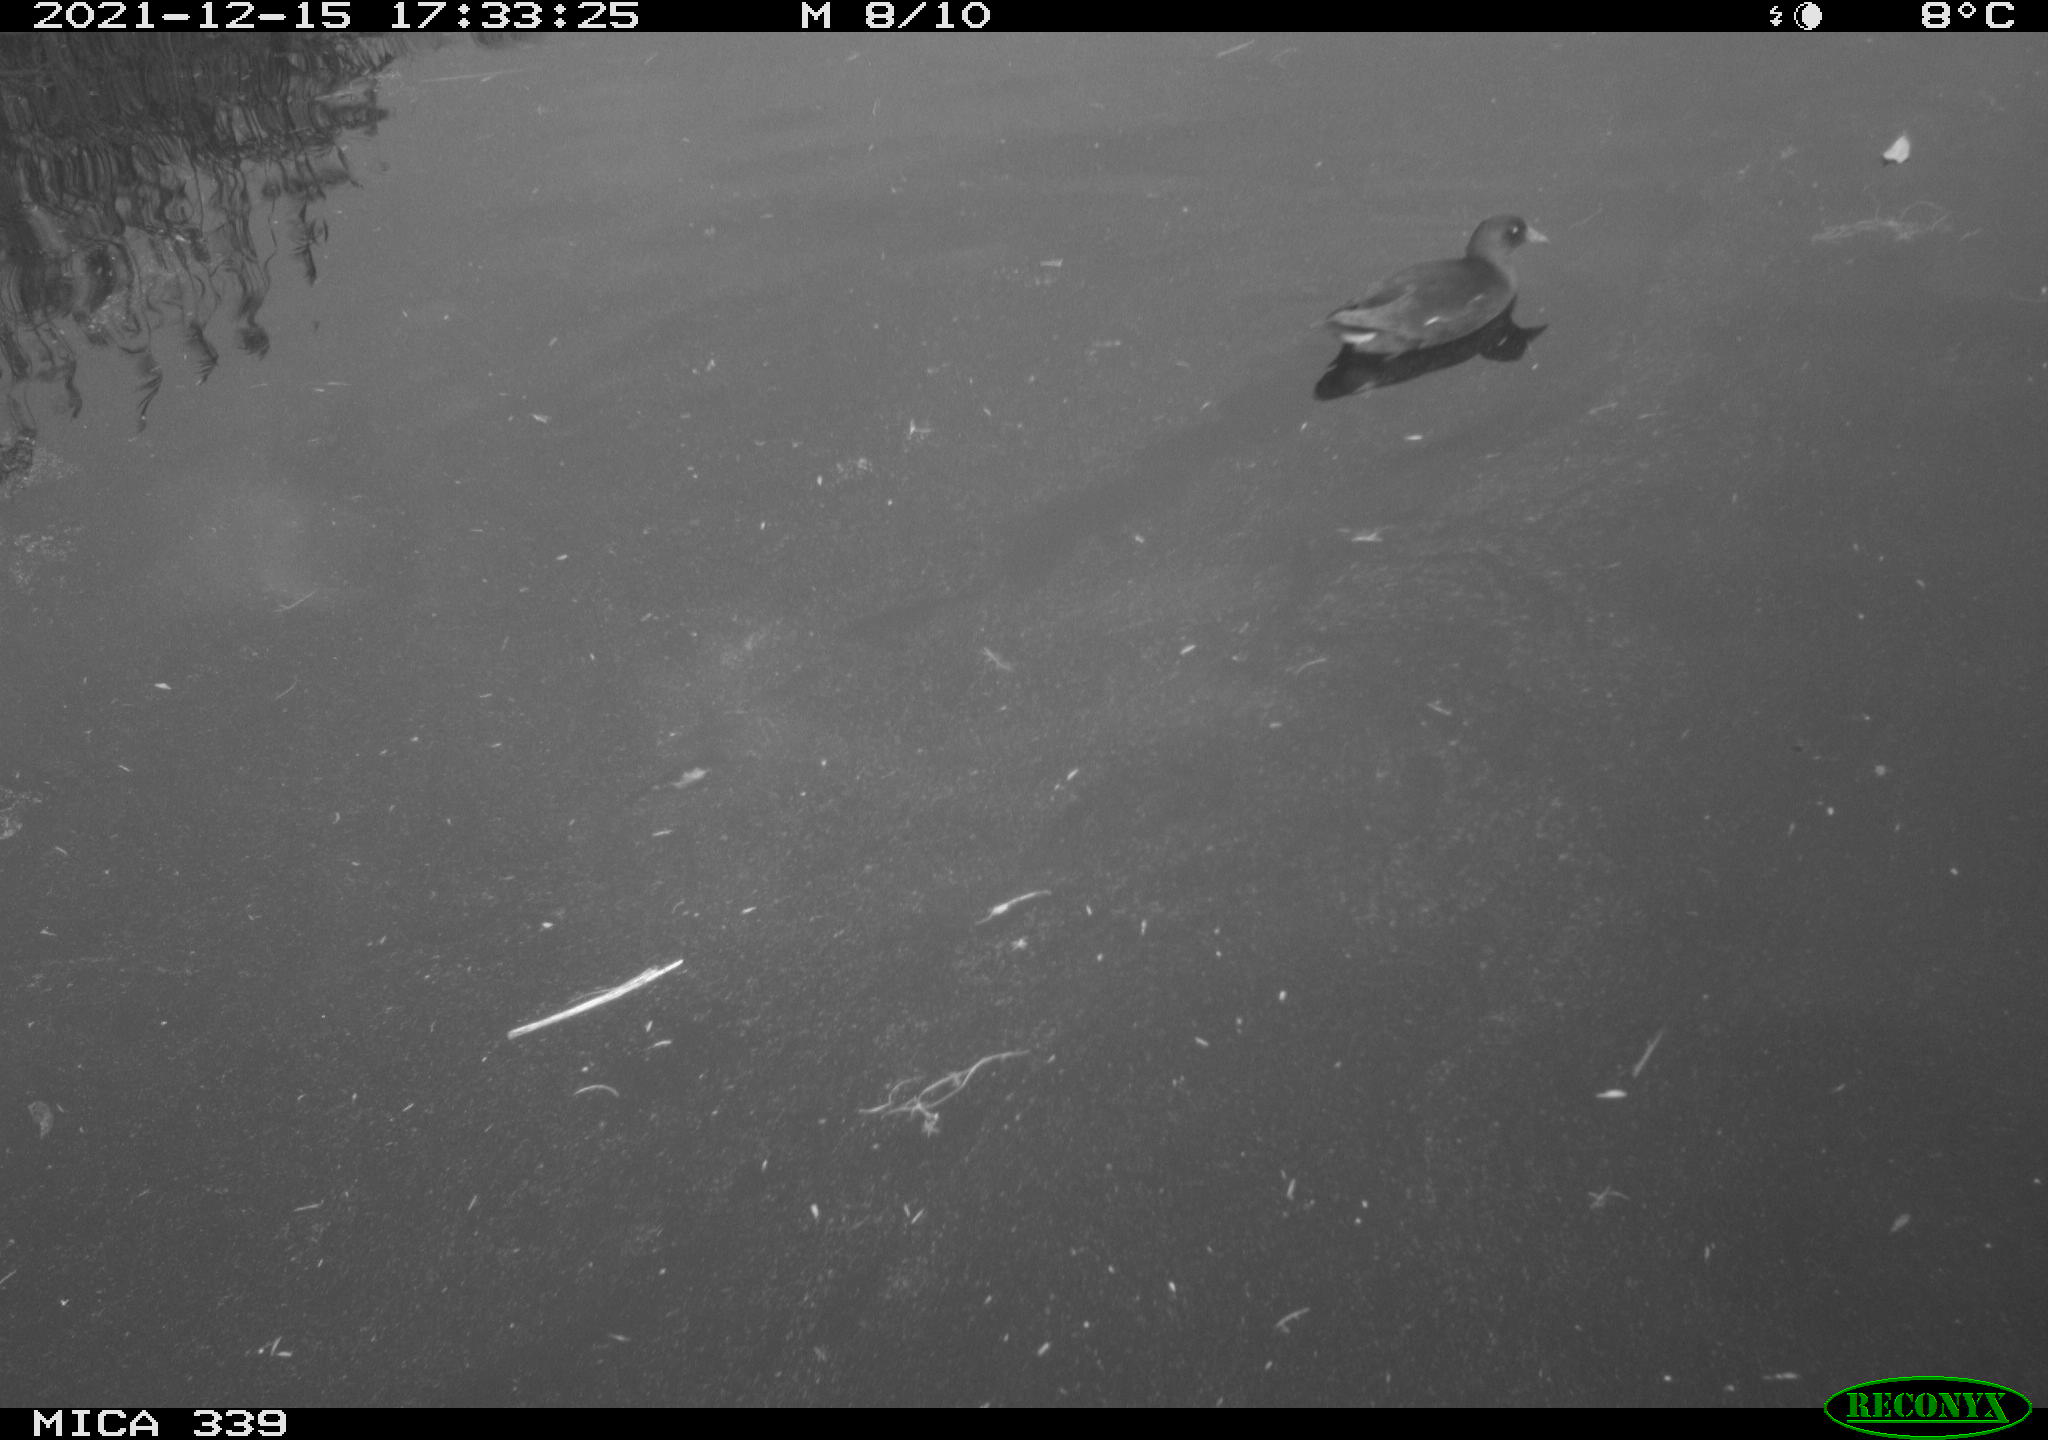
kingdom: Animalia
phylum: Chordata
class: Aves
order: Gruiformes
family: Rallidae
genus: Gallinula
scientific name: Gallinula chloropus
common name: Common moorhen
